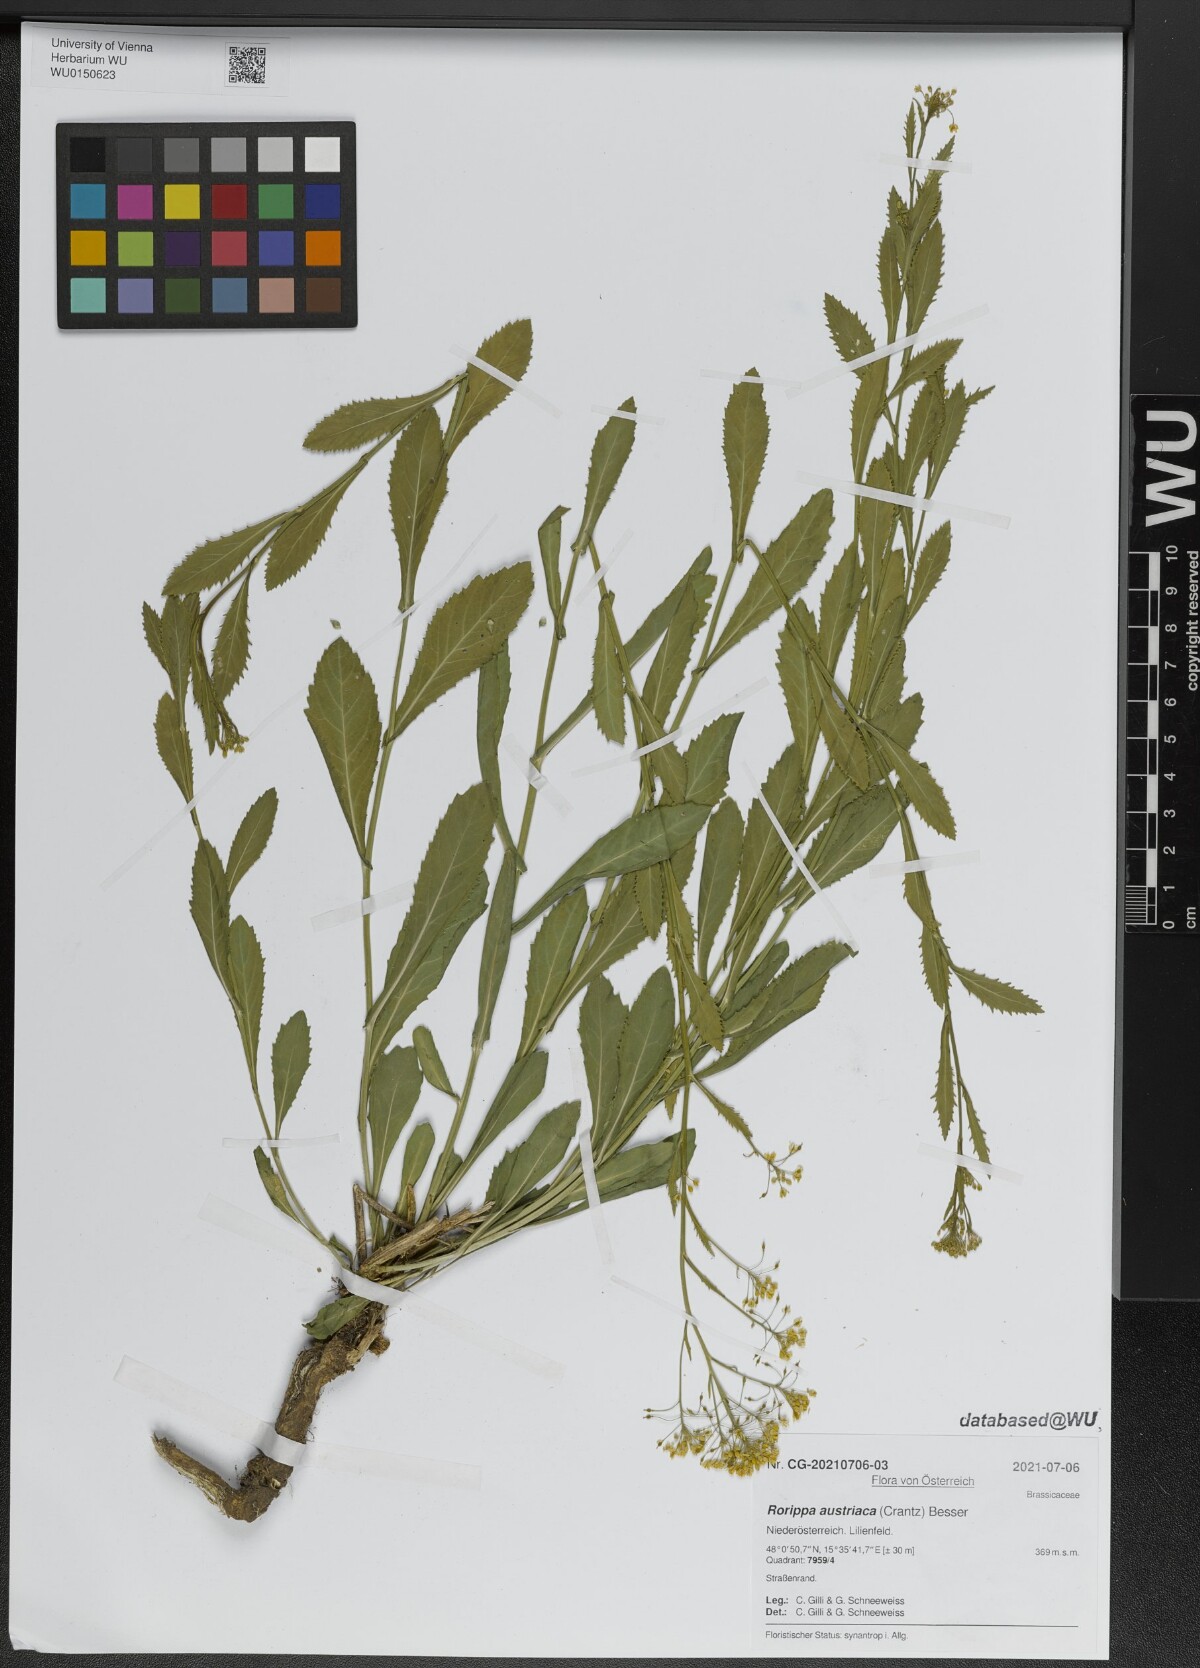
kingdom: Plantae
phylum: Tracheophyta
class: Magnoliopsida
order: Brassicales
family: Brassicaceae
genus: Rorippa
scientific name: Rorippa austriaca
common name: Austrian yellow-cress
